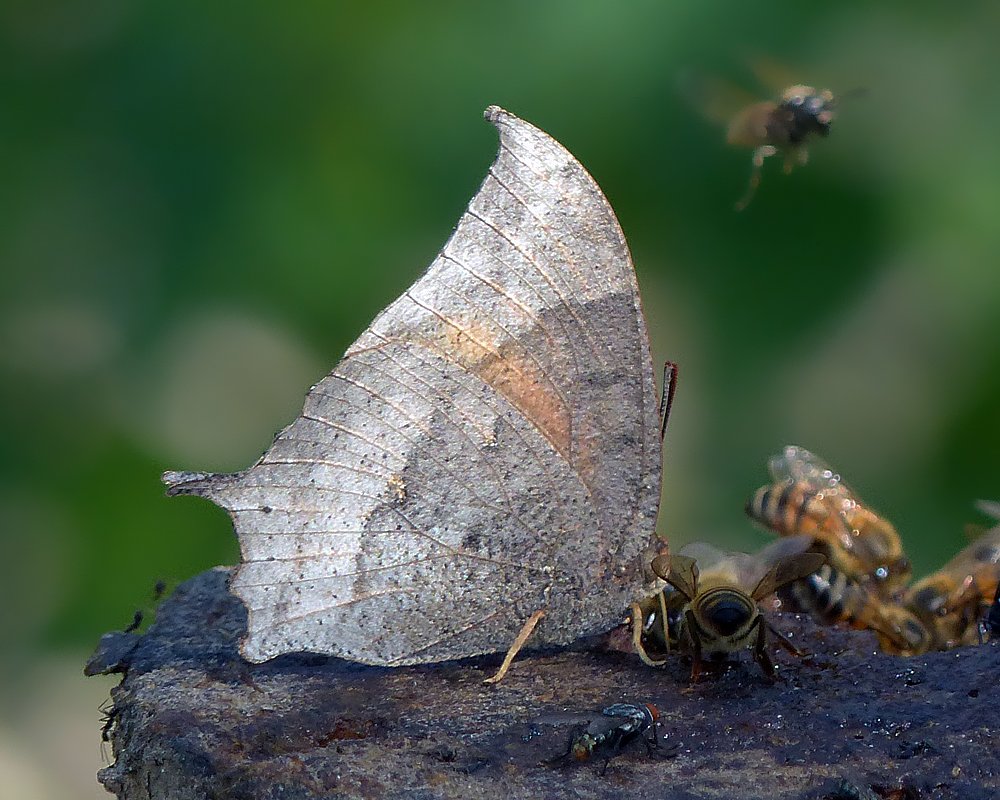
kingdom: Animalia
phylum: Arthropoda
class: Insecta
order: Lepidoptera
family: Nymphalidae
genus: Anaea
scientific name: Anaea aidea
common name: Tropical Leafwing
